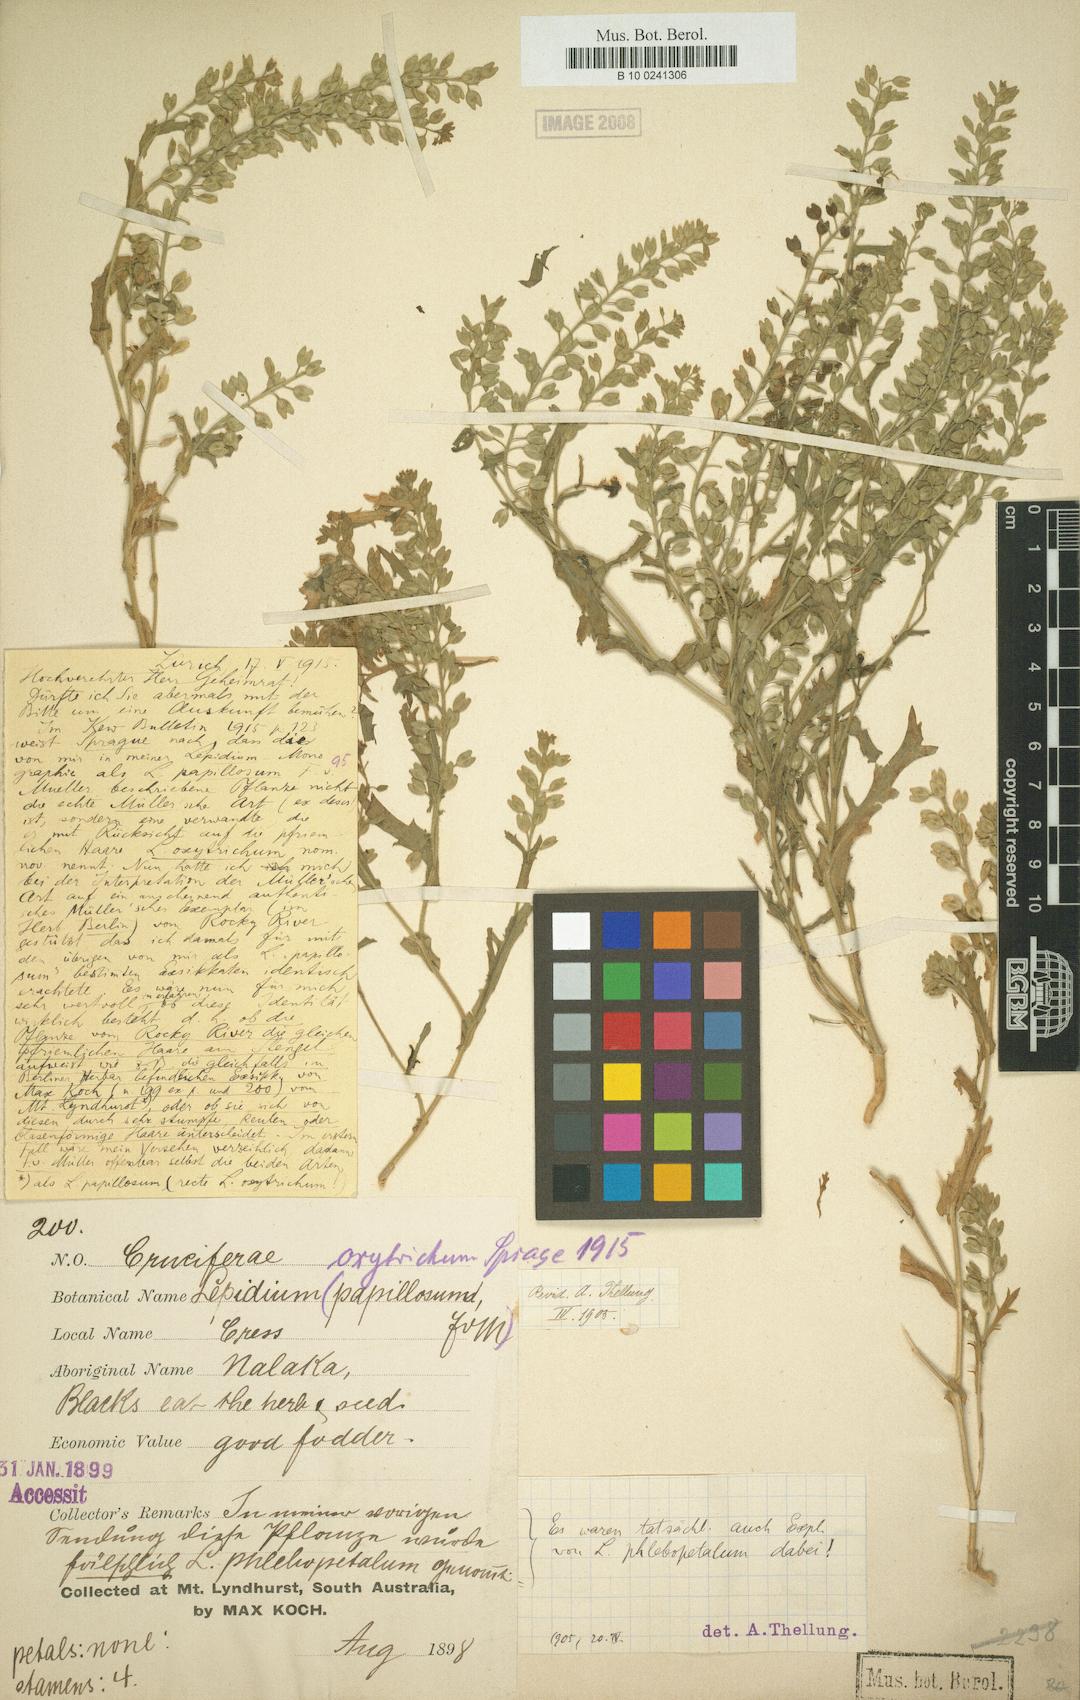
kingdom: Plantae
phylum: Tracheophyta
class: Magnoliopsida
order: Brassicales
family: Brassicaceae
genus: Lepidium
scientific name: Lepidium oxytrichum
